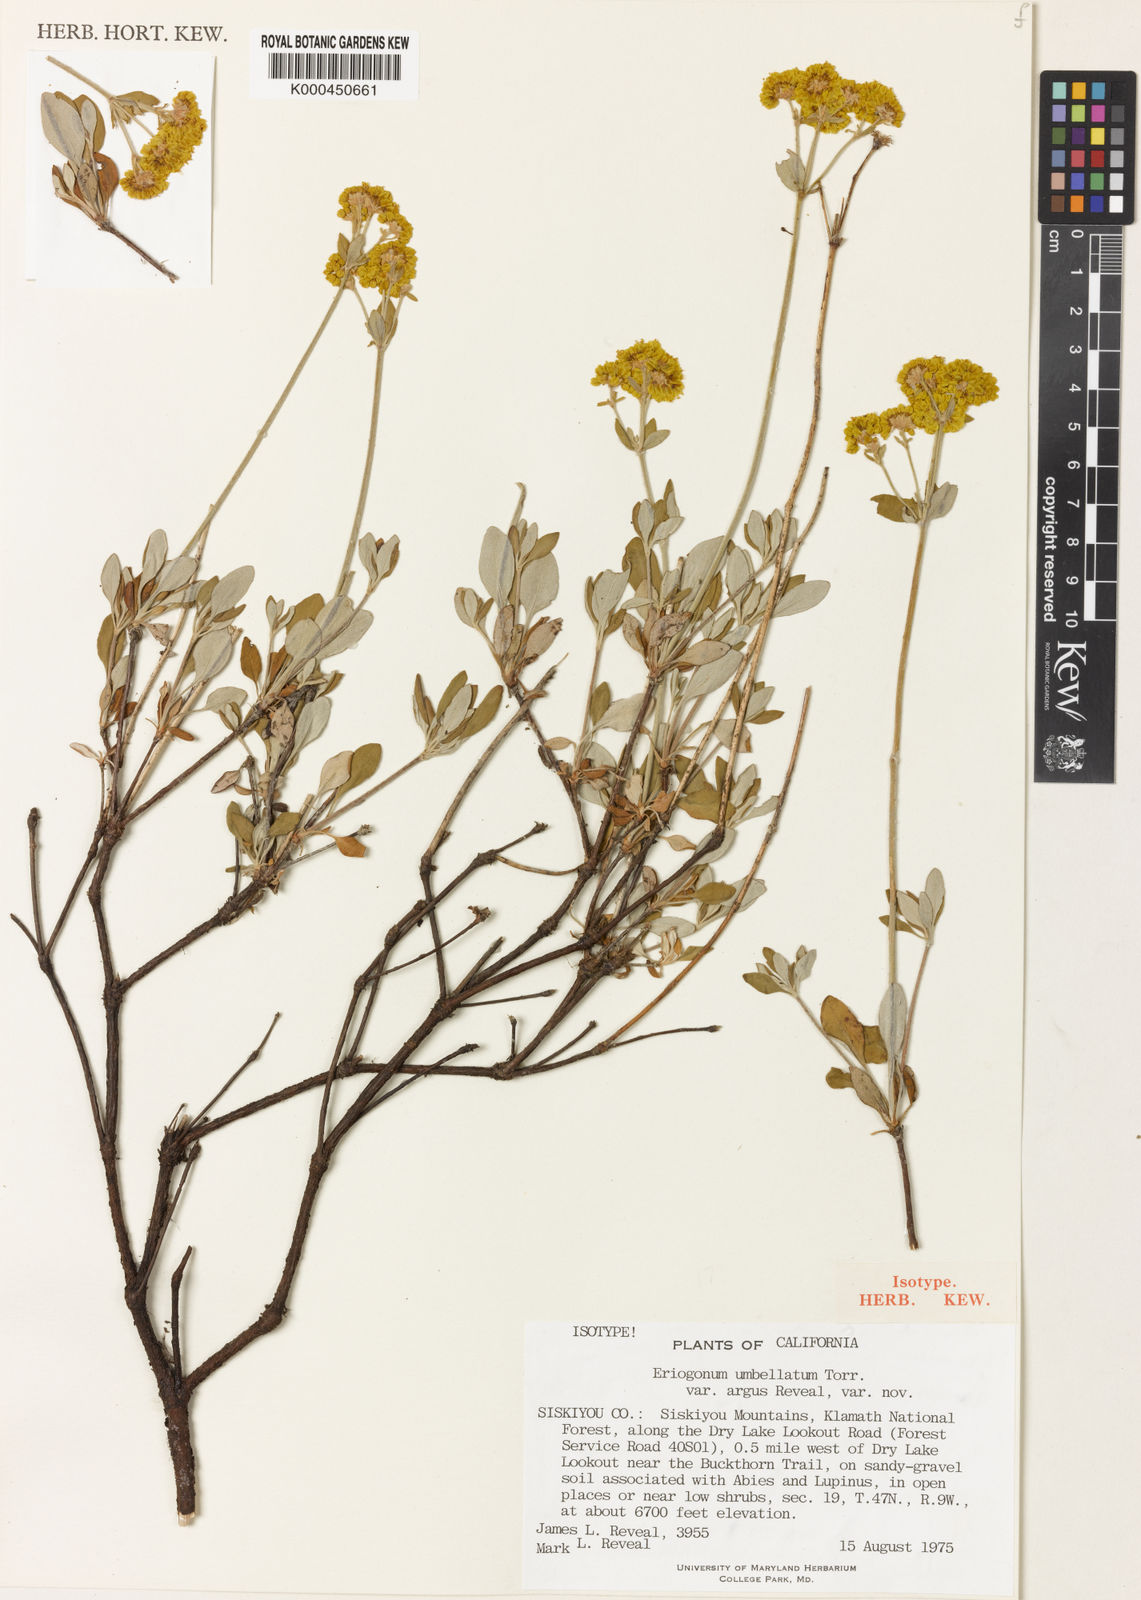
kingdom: Plantae
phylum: Tracheophyta
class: Magnoliopsida
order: Caryophyllales
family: Polygonaceae
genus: Eriogonum
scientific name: Eriogonum umbellatum
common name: Sulfur-buckwheat
